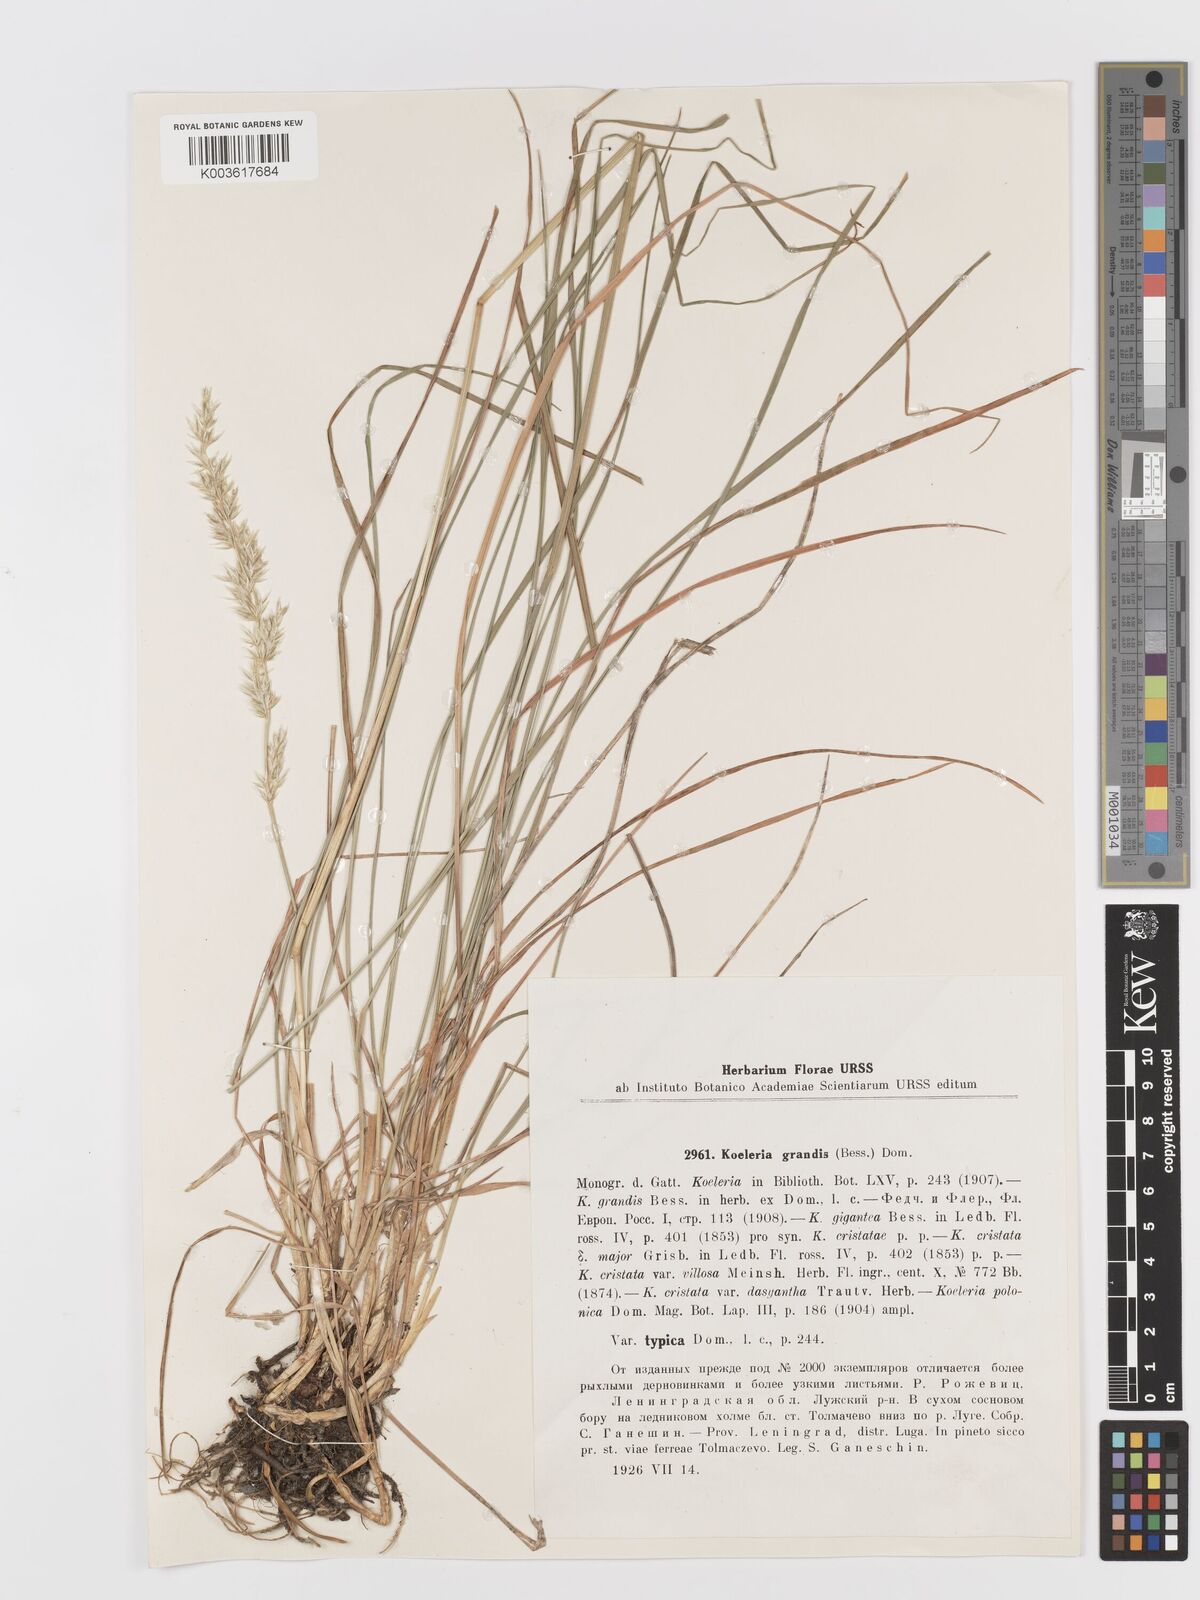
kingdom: Plantae
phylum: Tracheophyta
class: Liliopsida
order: Poales
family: Poaceae
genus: Koeleria
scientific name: Koeleria pyramidata
